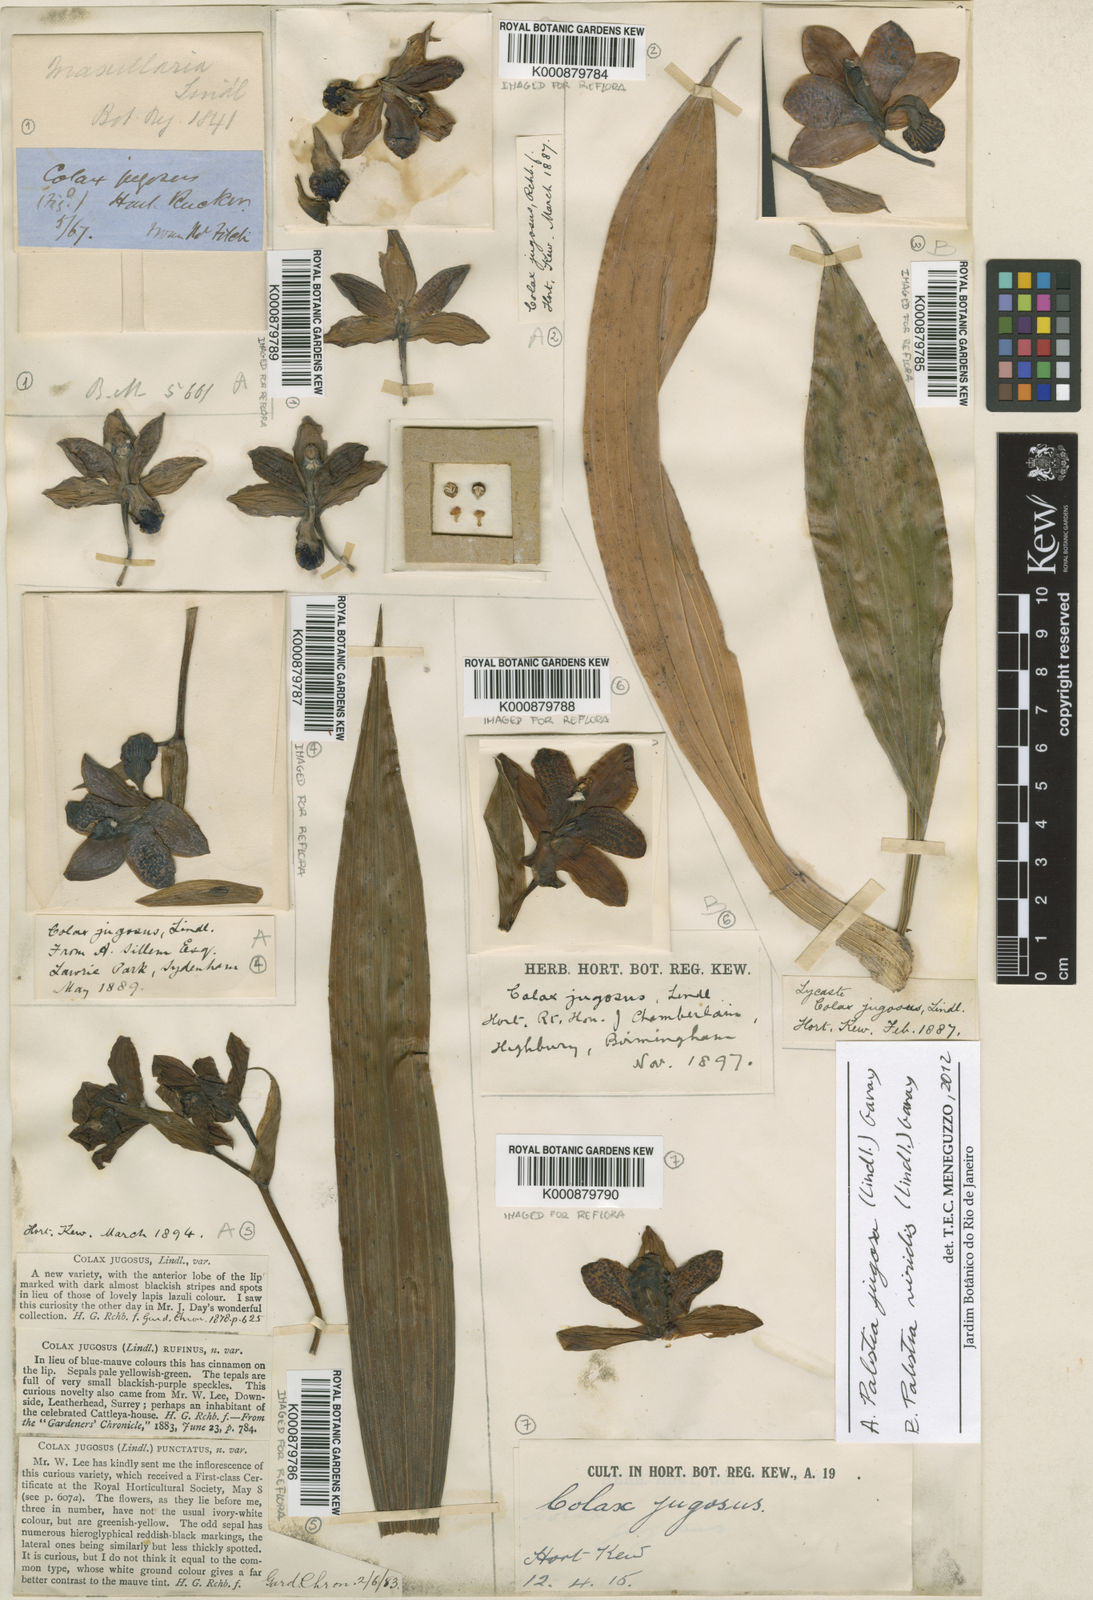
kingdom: Plantae
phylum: Tracheophyta
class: Liliopsida
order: Asparagales
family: Orchidaceae
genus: Pabstia
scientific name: Pabstia viridis
